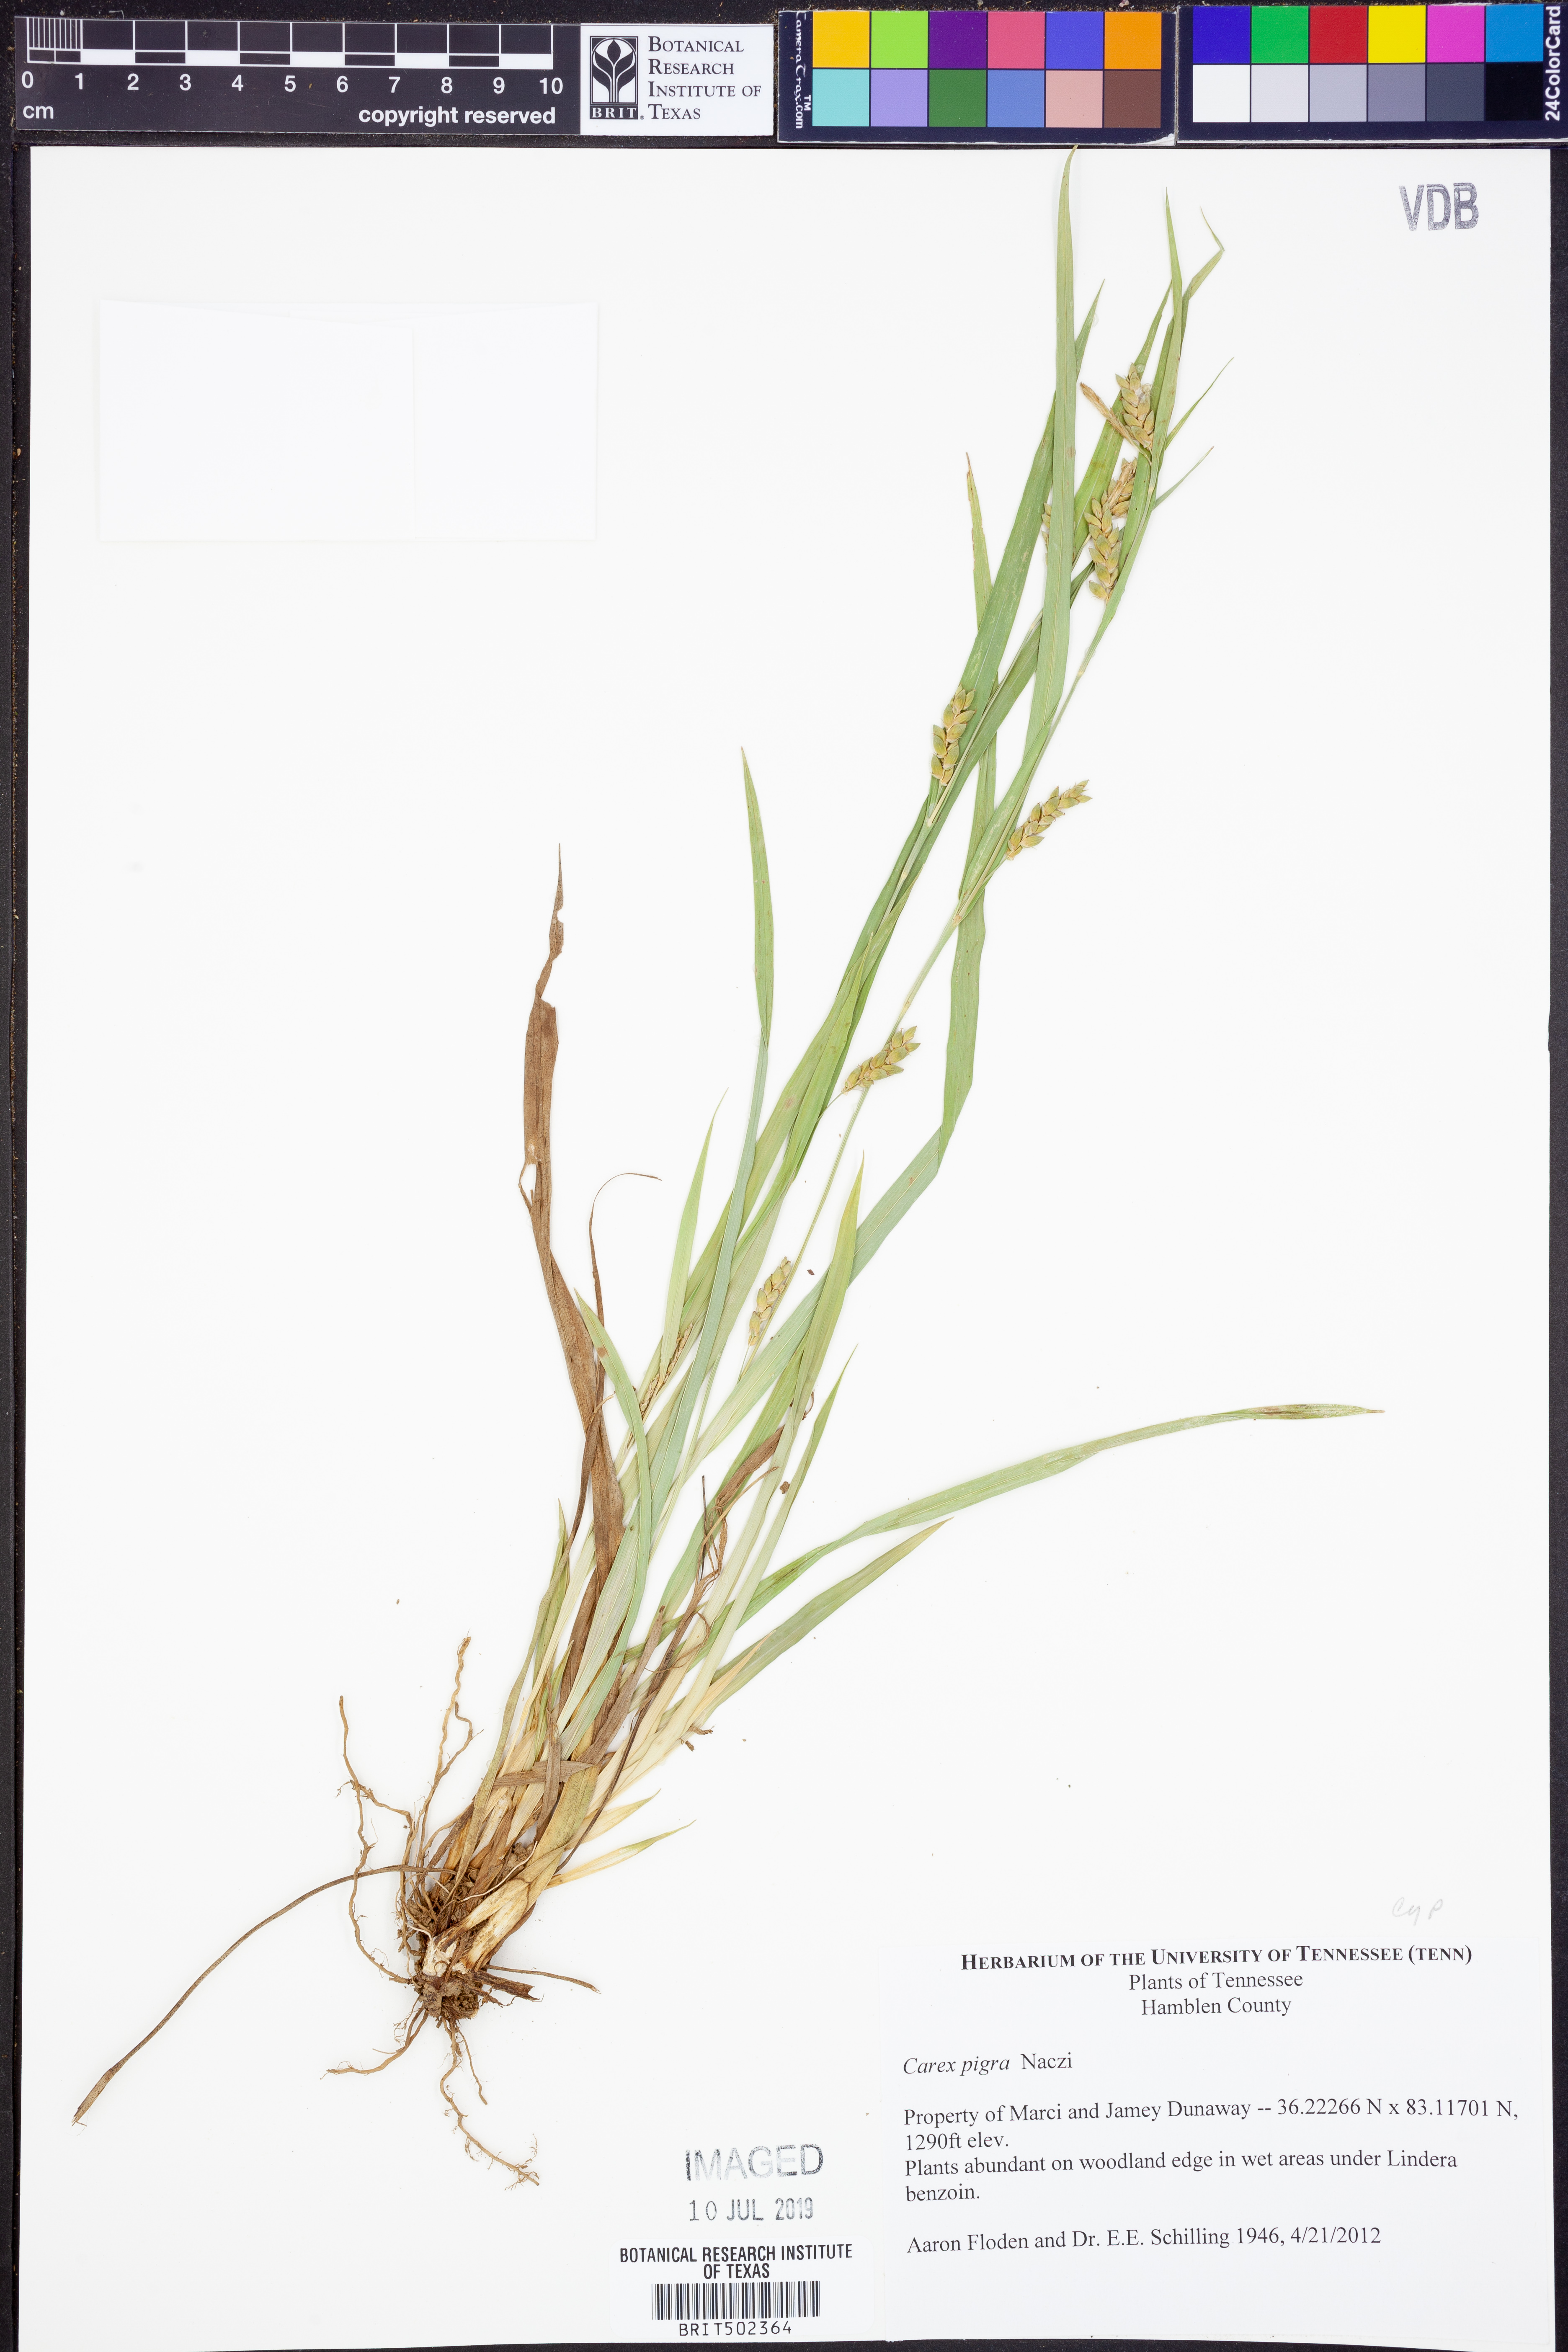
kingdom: Plantae
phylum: Tracheophyta
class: Liliopsida
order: Poales
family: Cyperaceae
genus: Carex
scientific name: Carex pigra
